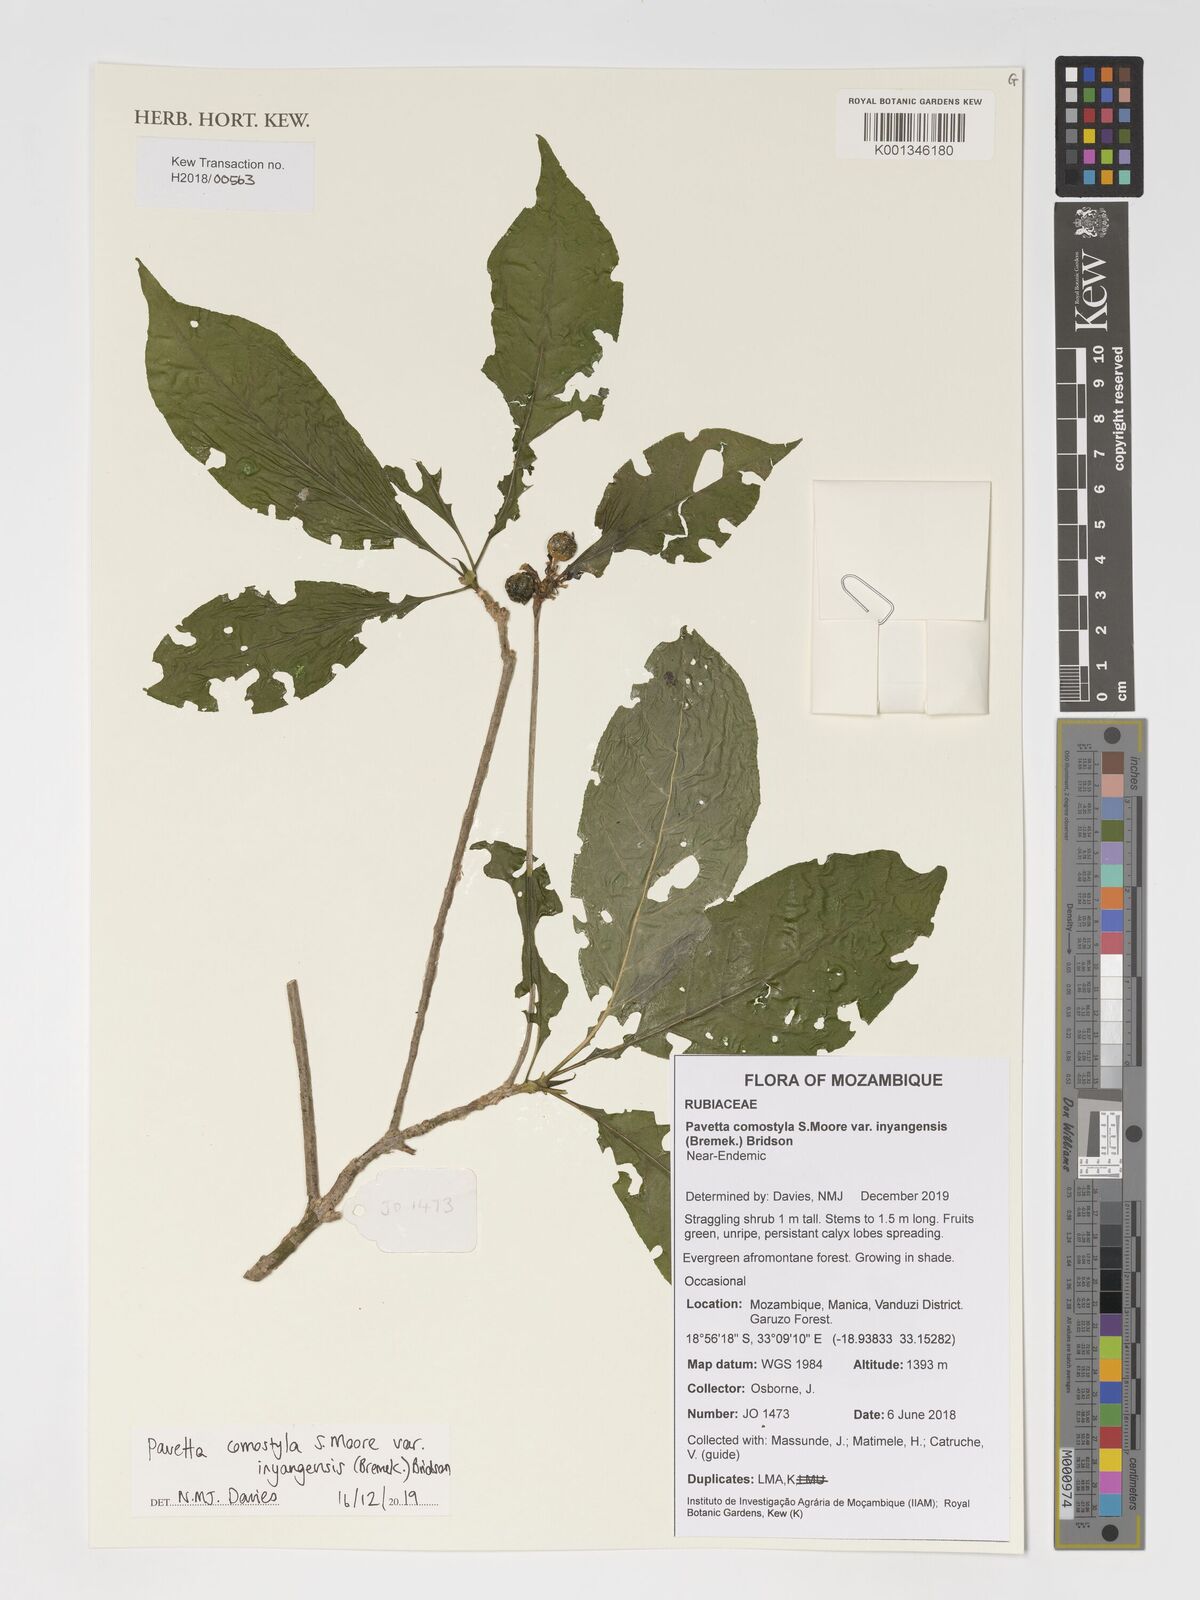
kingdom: Plantae
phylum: Tracheophyta
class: Magnoliopsida
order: Gentianales
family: Rubiaceae
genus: Pavetta
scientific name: Pavetta comostyla
